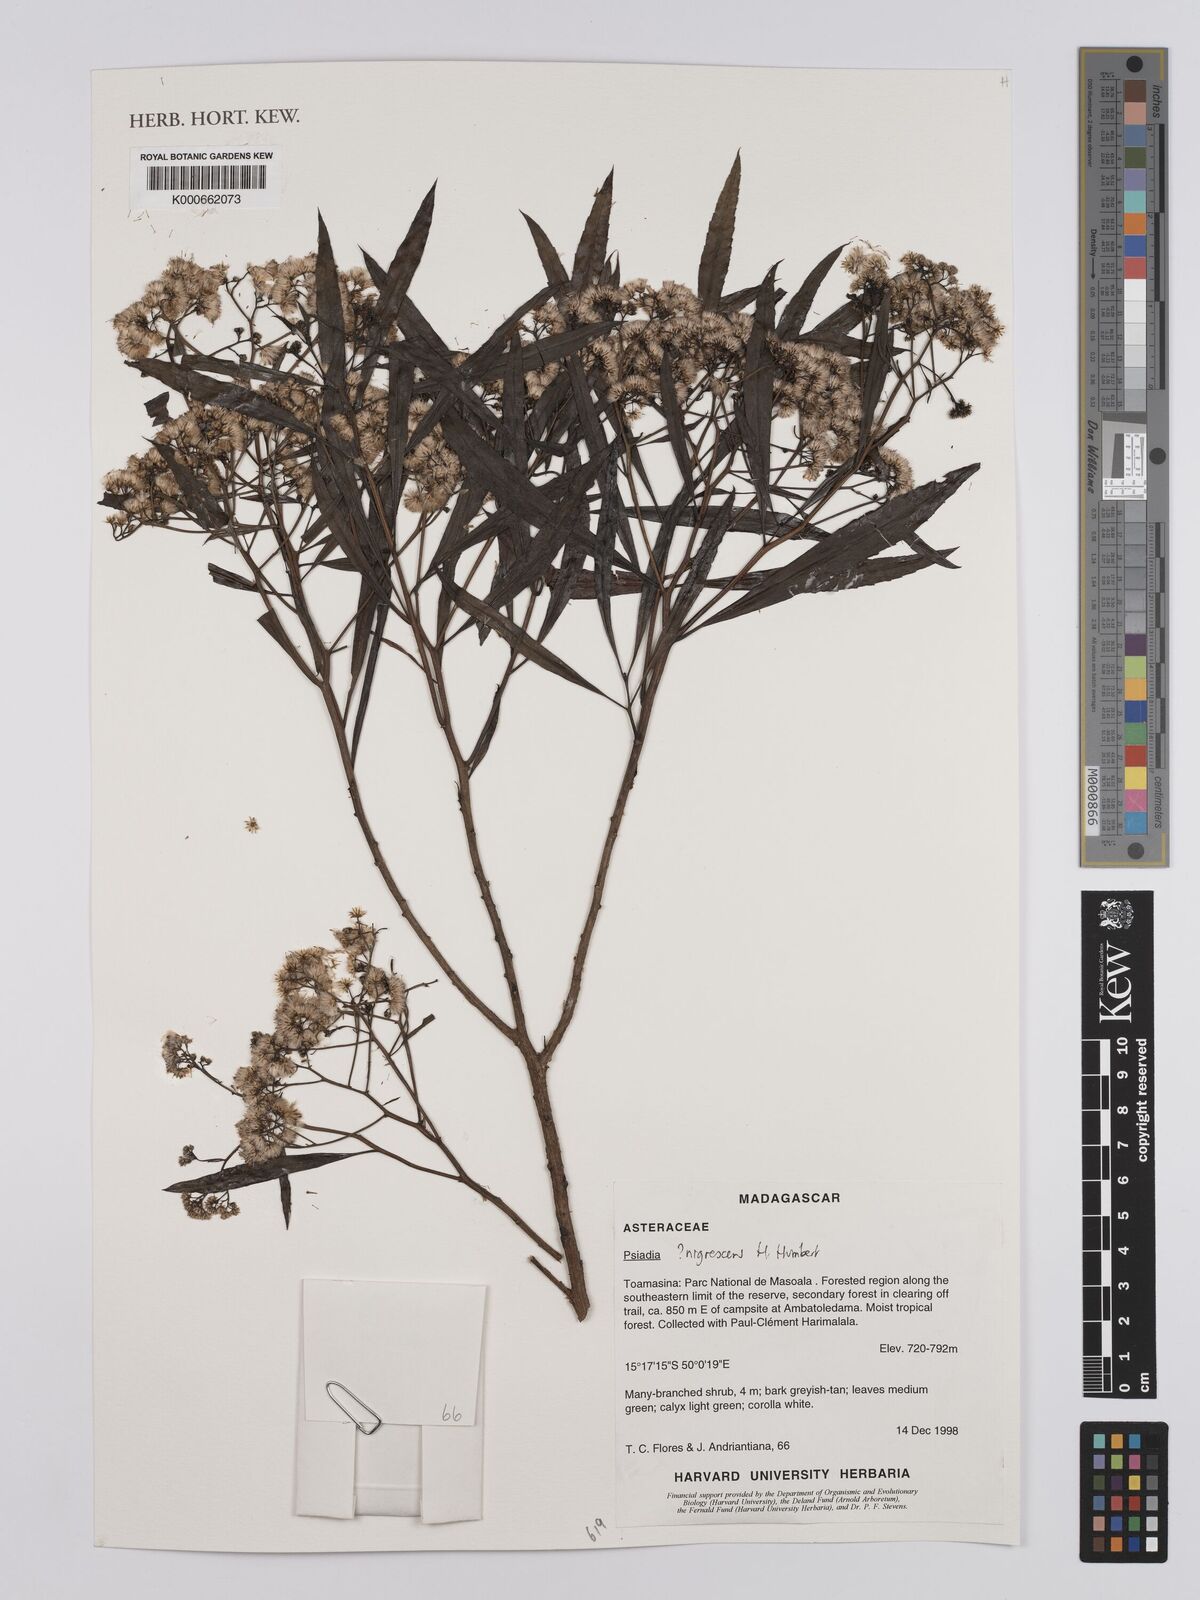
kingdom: Plantae
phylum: Tracheophyta
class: Magnoliopsida
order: Asterales
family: Asteraceae
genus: Psiadia
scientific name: Psiadia nigrescens
